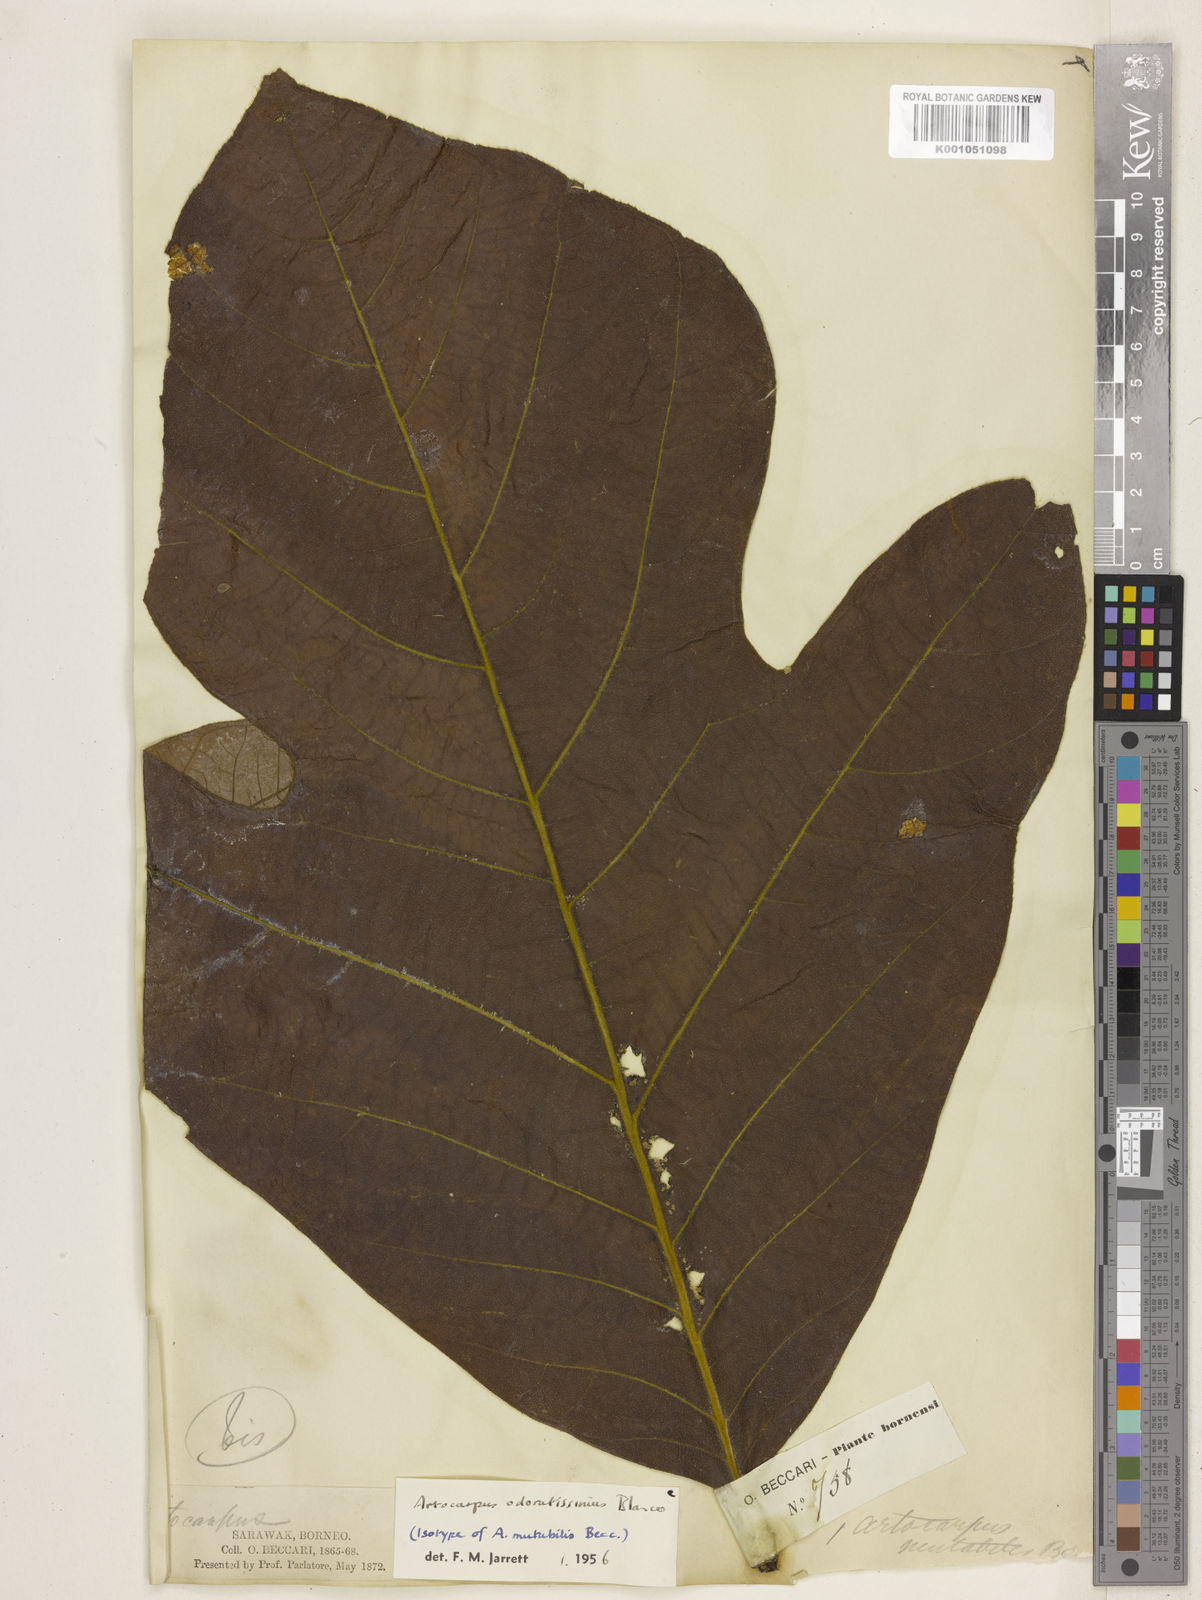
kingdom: Plantae
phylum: Tracheophyta
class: Magnoliopsida
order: Rosales
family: Moraceae
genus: Artocarpus
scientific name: Artocarpus odoratissimus
